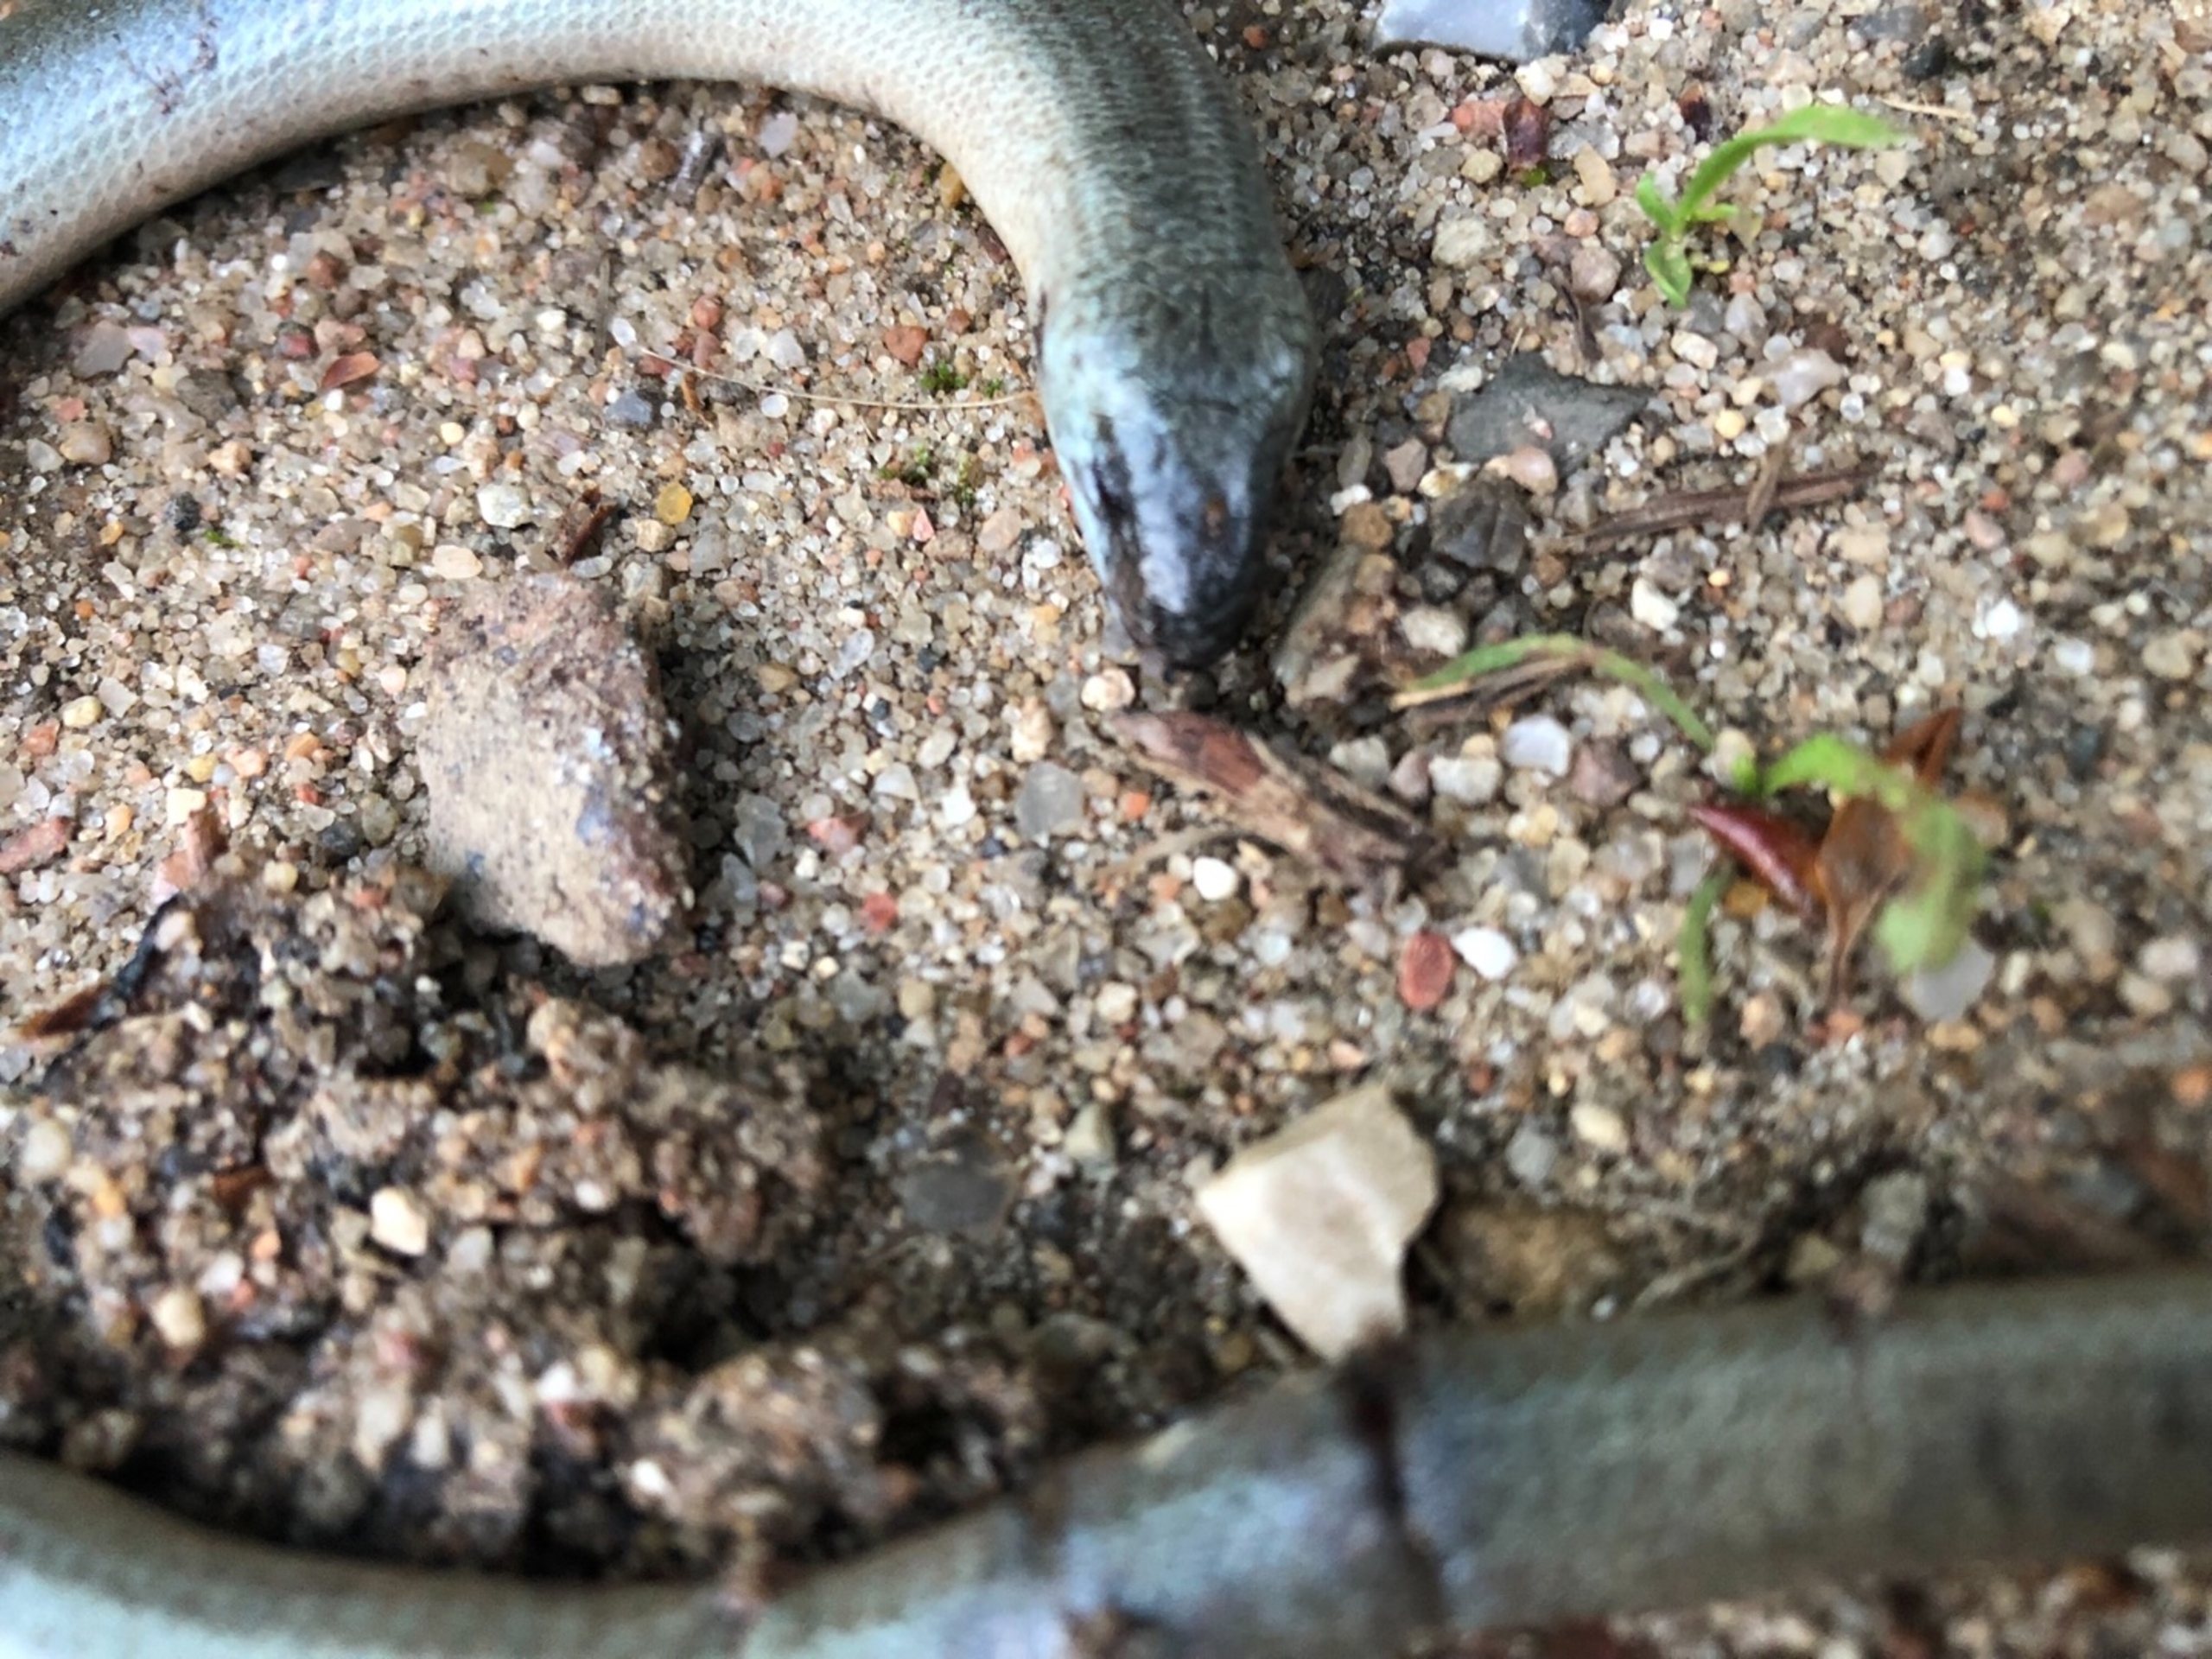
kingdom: Animalia
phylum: Chordata
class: Squamata
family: Anguidae
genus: Anguis
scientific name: Anguis fragilis
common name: Stålorm
